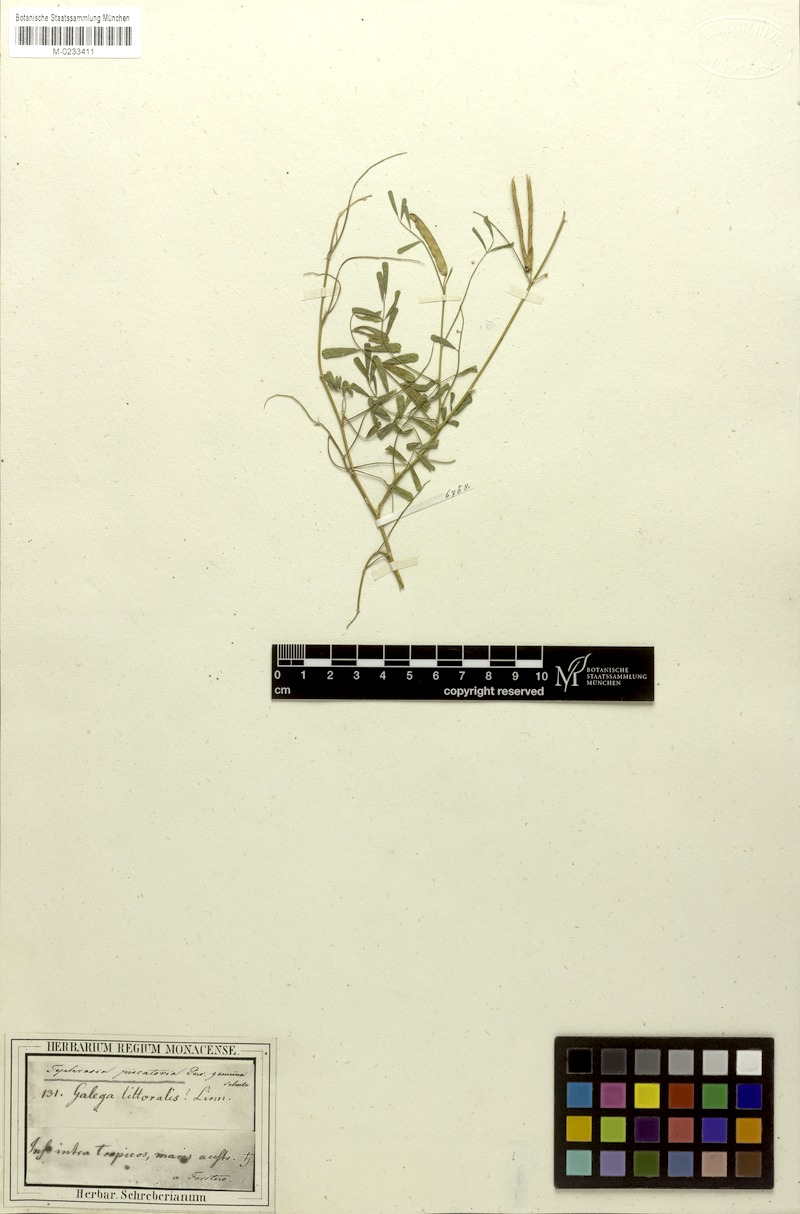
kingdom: Plantae
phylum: Tracheophyta
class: Magnoliopsida
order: Fabales
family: Fabaceae
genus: Tephrosia
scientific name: Tephrosia purpurea
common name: Fishpoison
